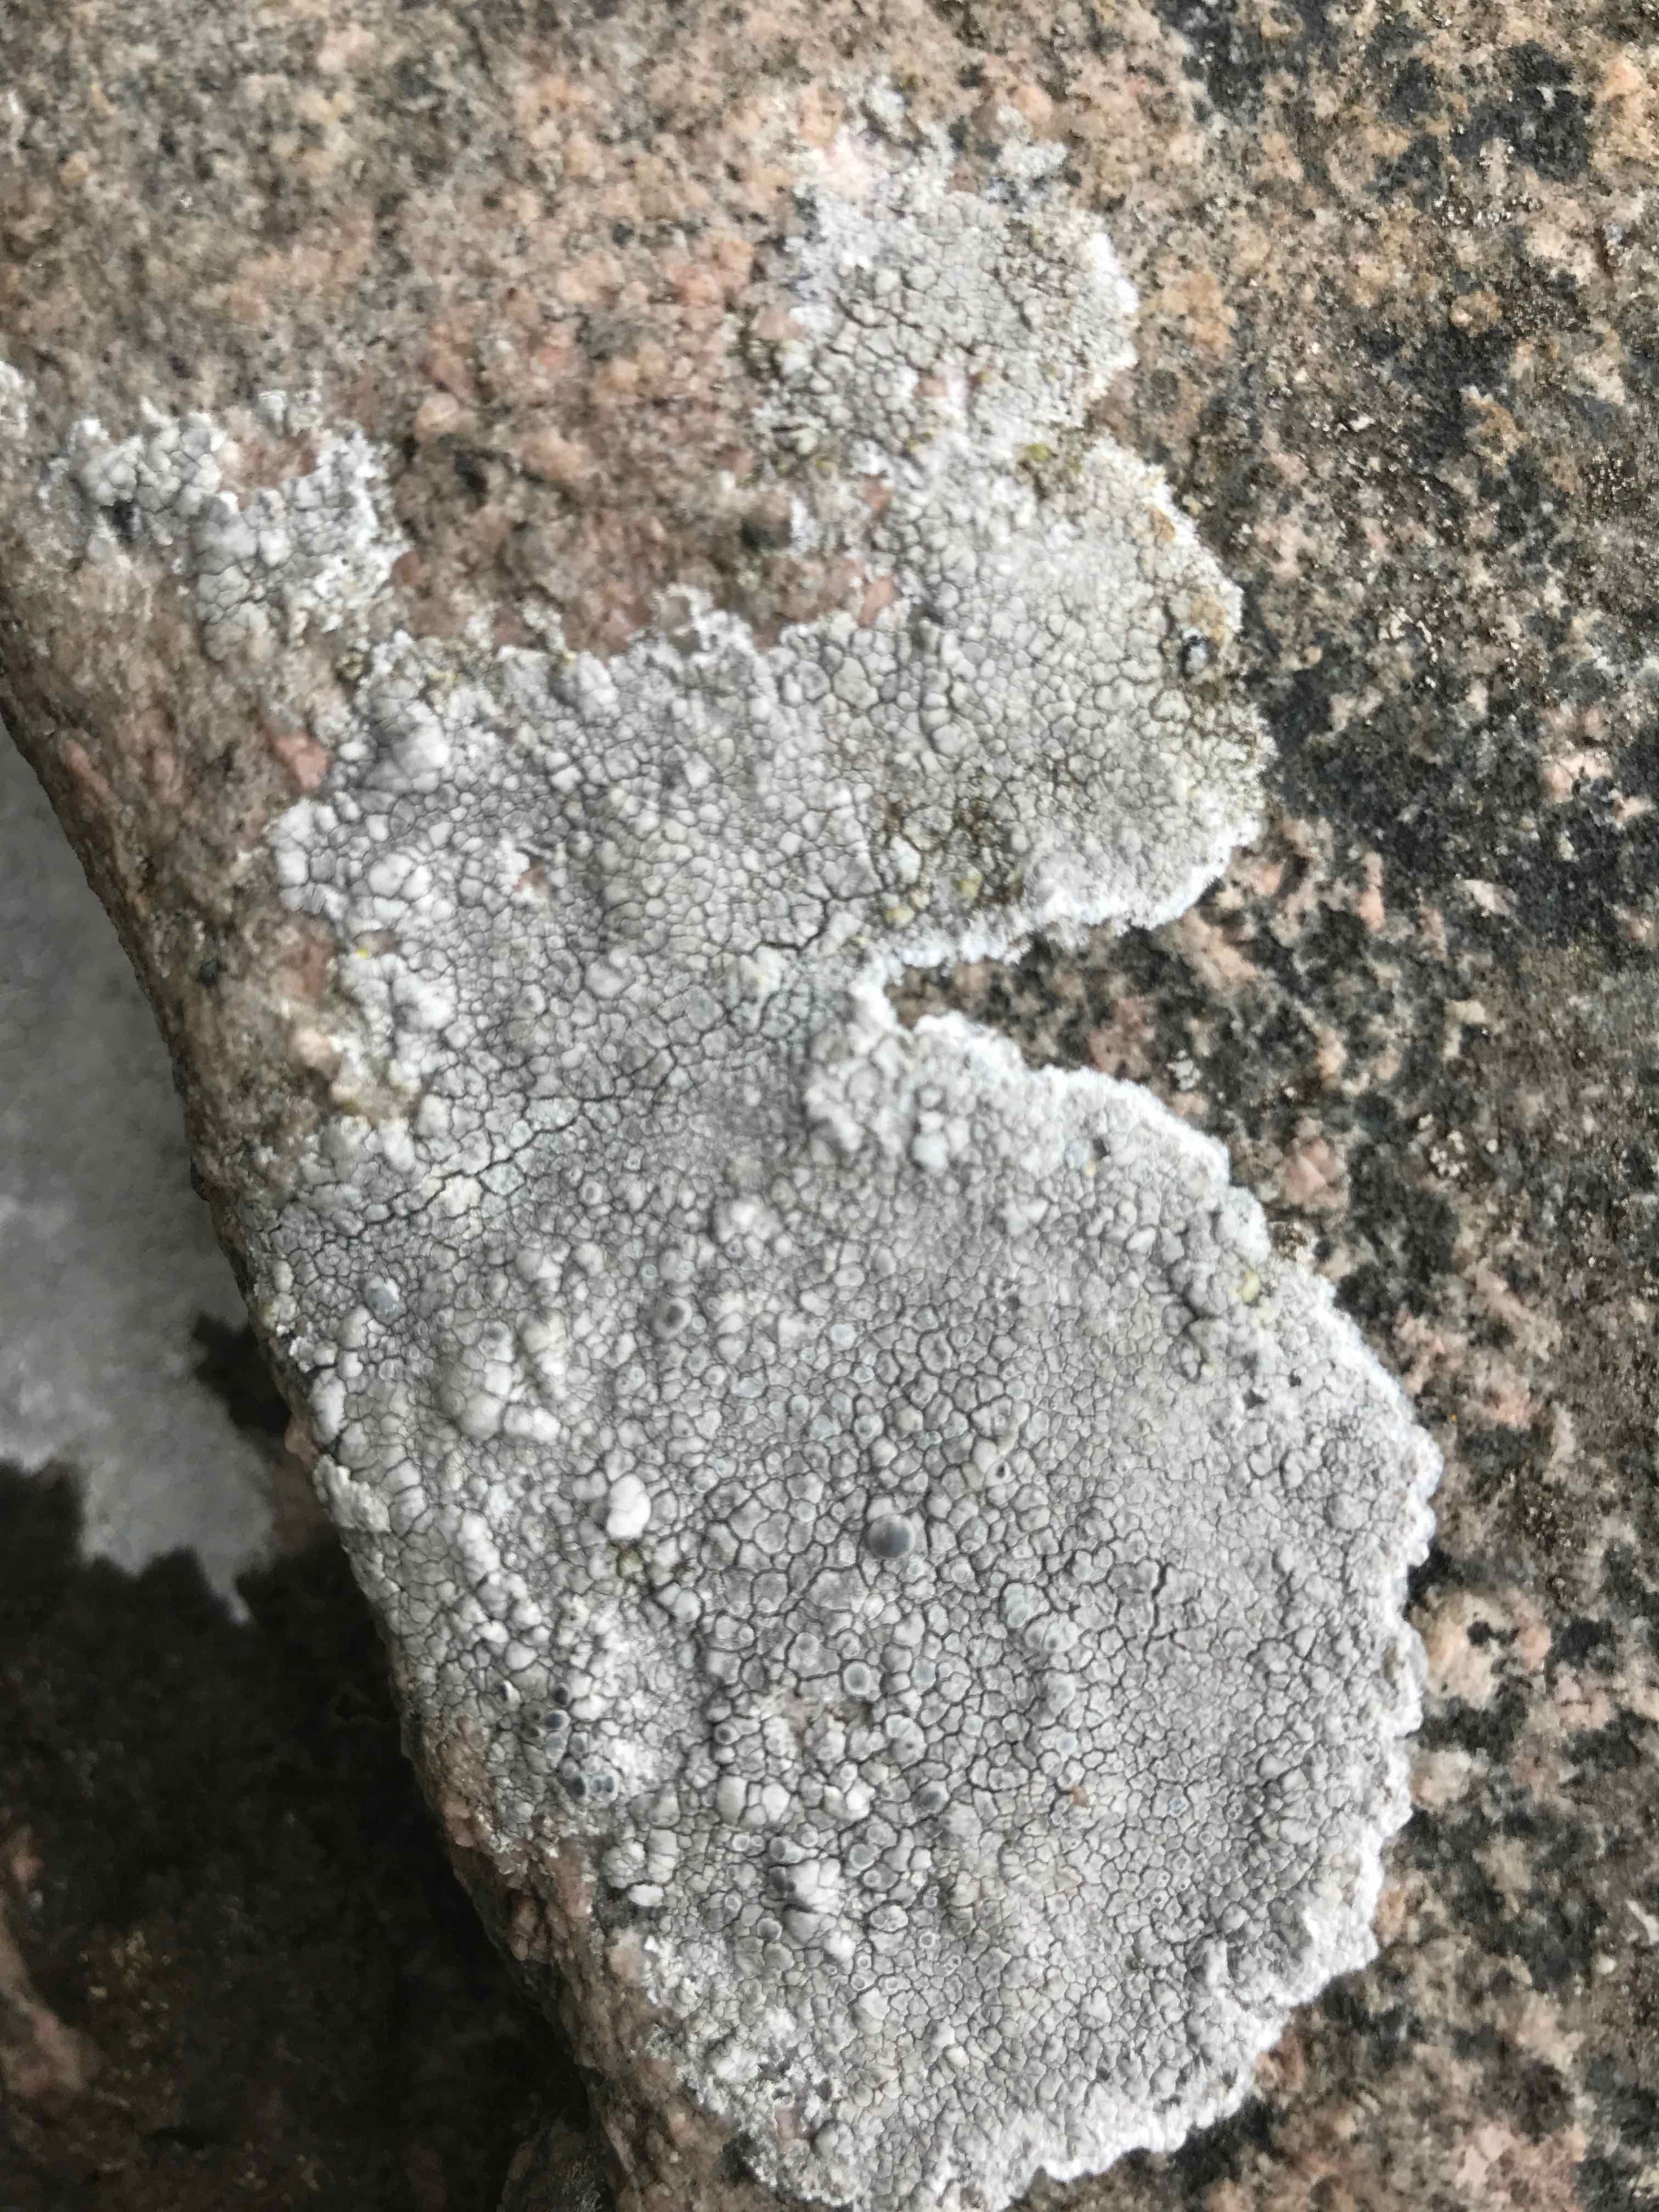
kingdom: Fungi
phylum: Ascomycota
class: Lecanoromycetes
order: Lecanorales
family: Lecanoraceae
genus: Lecanora
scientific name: Lecanora
